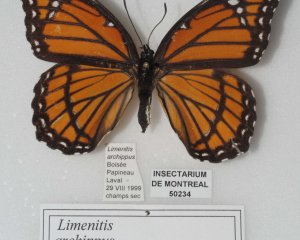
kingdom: Animalia
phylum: Arthropoda
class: Insecta
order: Lepidoptera
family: Nymphalidae
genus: Limenitis
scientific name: Limenitis archippus
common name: Viceroy
